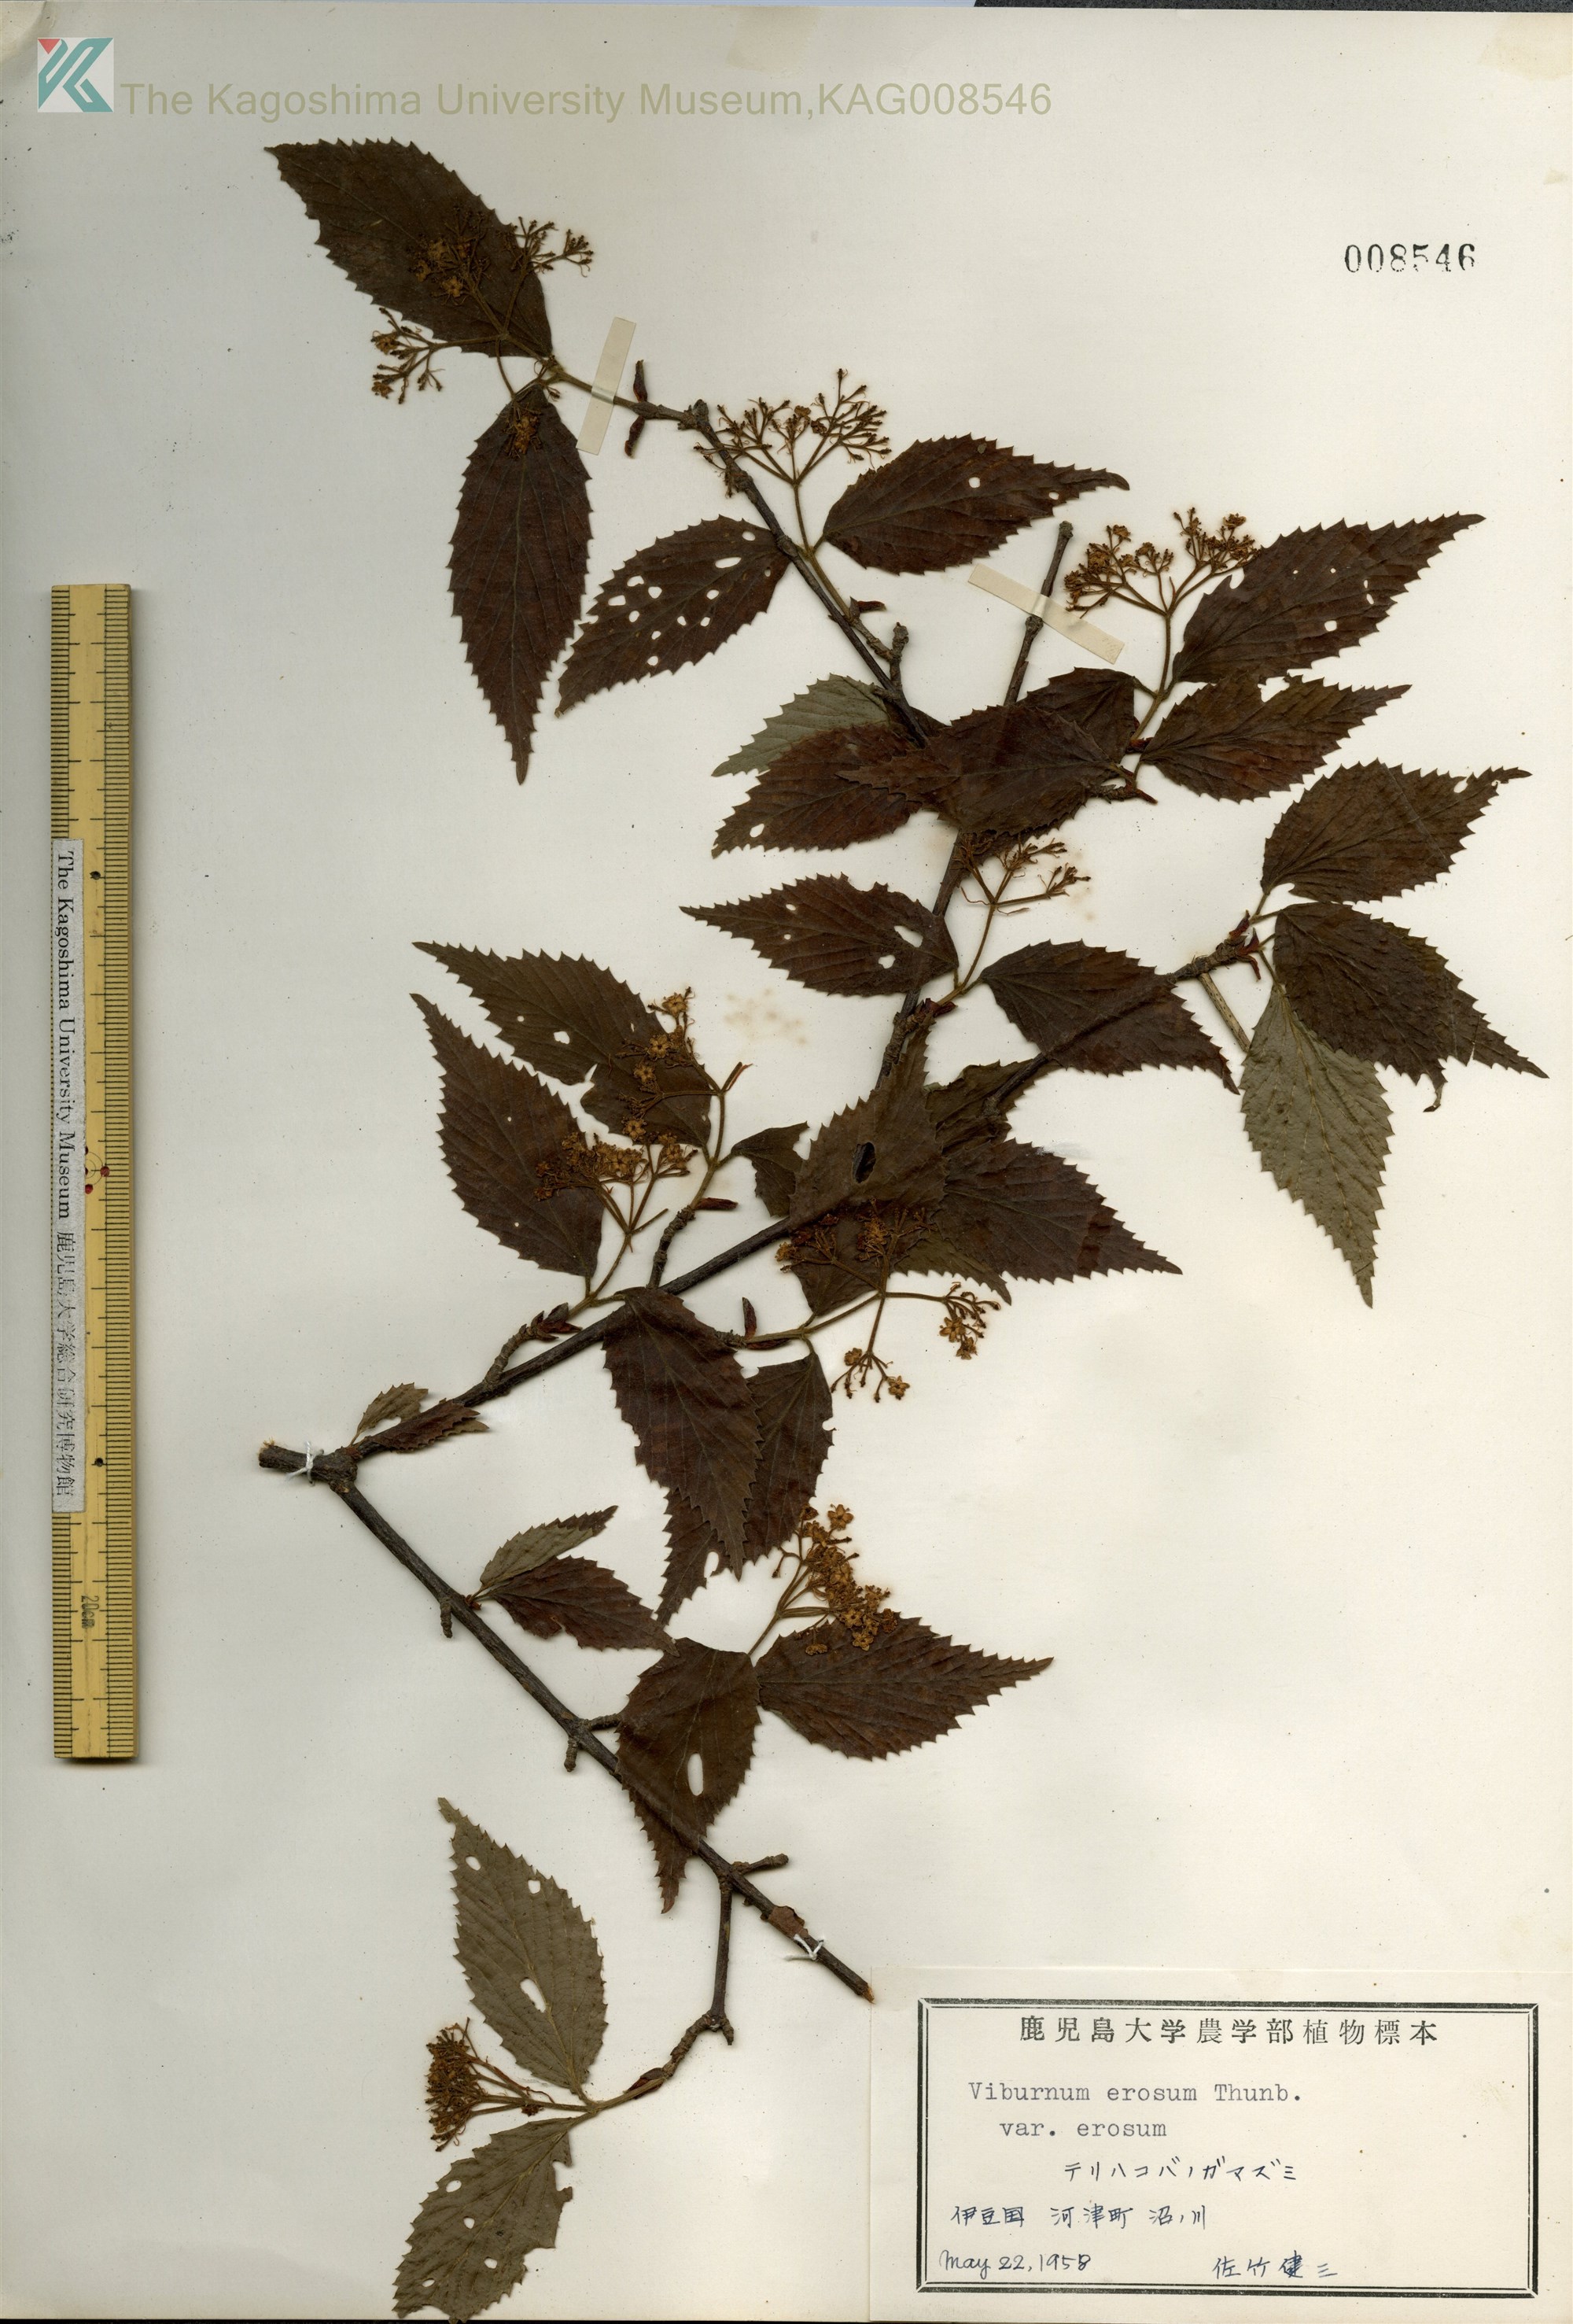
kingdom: Plantae
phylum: Tracheophyta
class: Magnoliopsida
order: Dipsacales
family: Viburnaceae
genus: Viburnum
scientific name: Viburnum erosum
